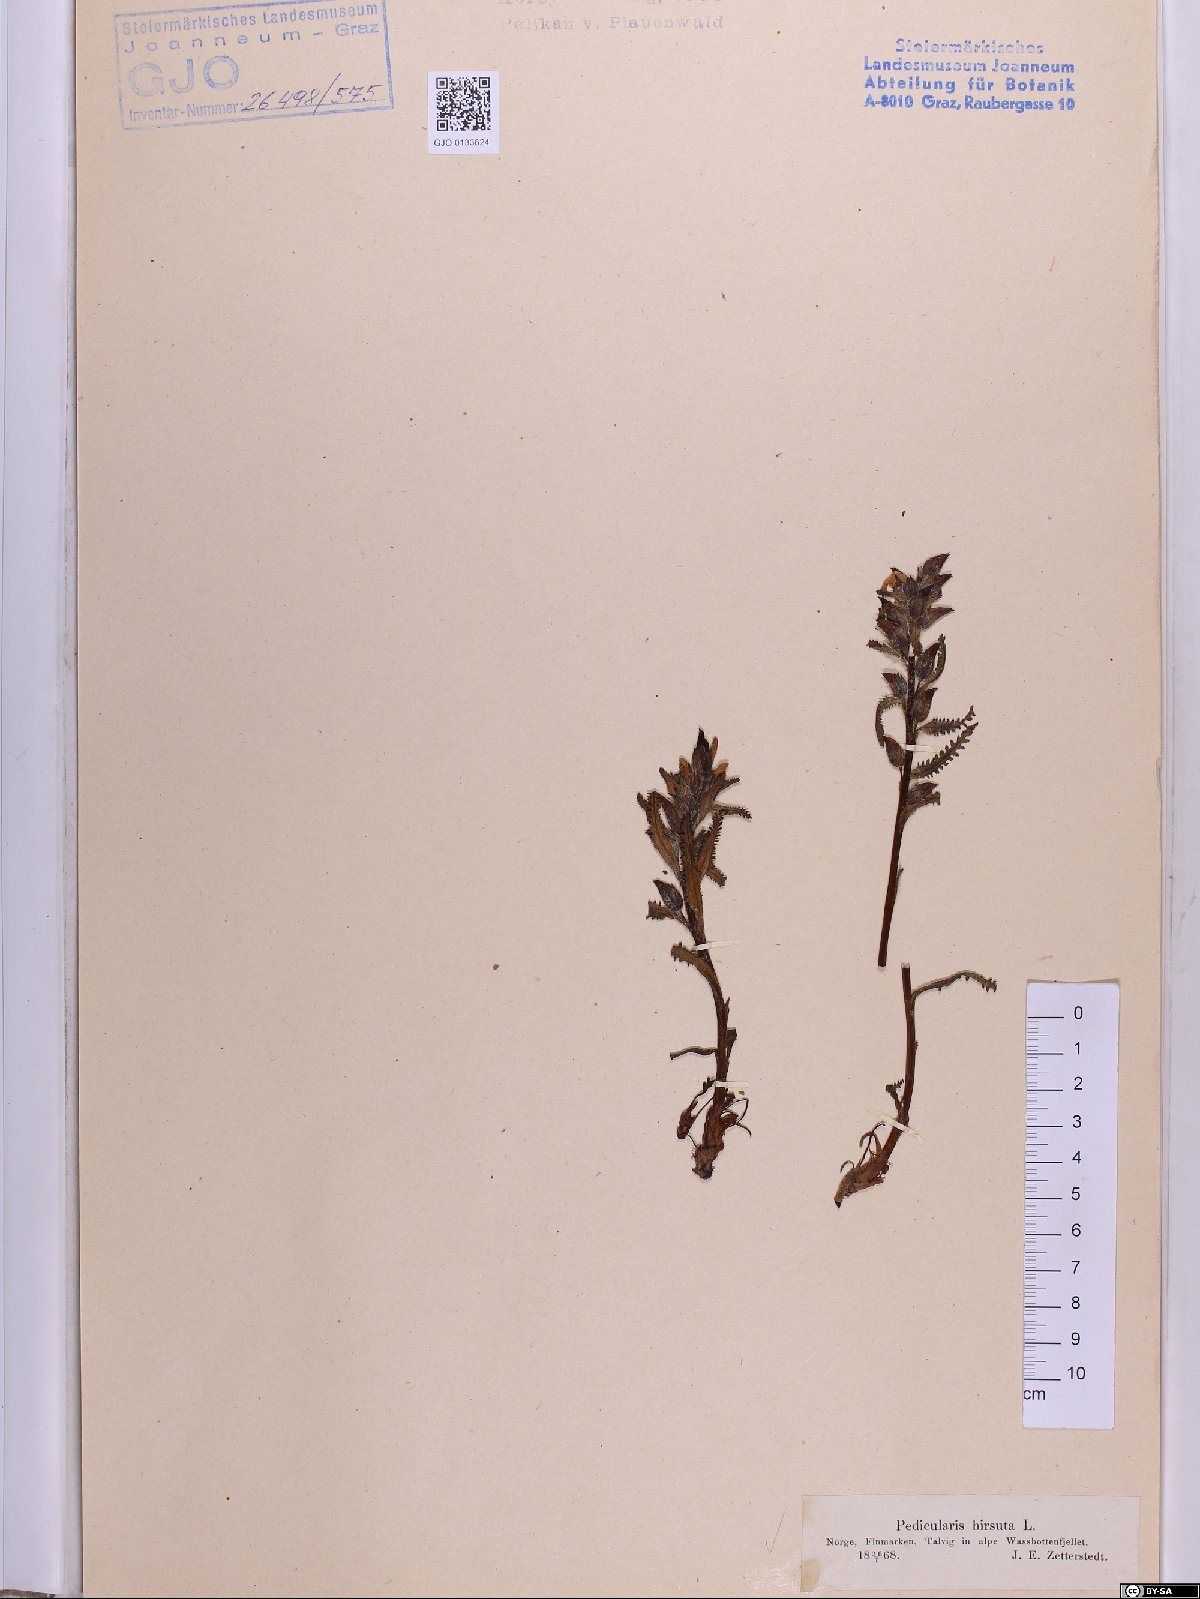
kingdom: Plantae
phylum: Tracheophyta
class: Magnoliopsida
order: Lamiales
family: Orobanchaceae
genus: Pedicularis
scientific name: Pedicularis hirsuta
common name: Hairy lousewort
